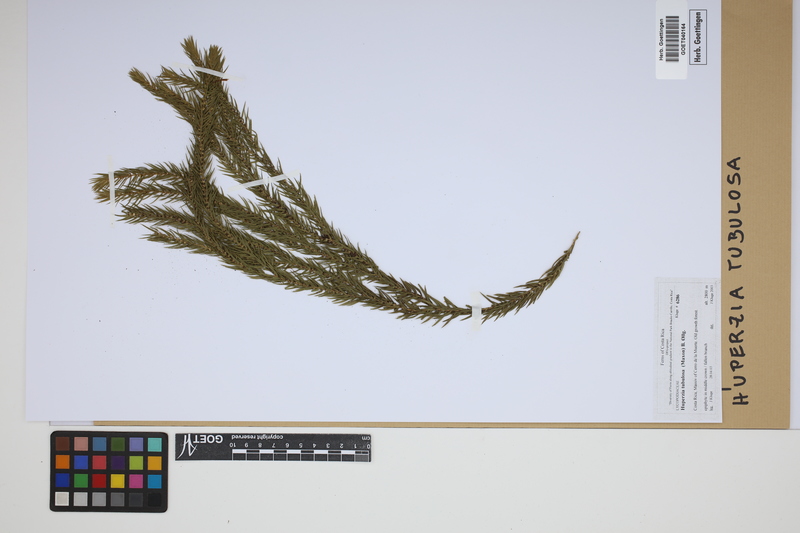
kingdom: Plantae
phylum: Tracheophyta
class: Lycopodiopsida
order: Lycopodiales
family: Lycopodiaceae
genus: Phlegmariurus
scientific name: Phlegmariurus tubulosus
